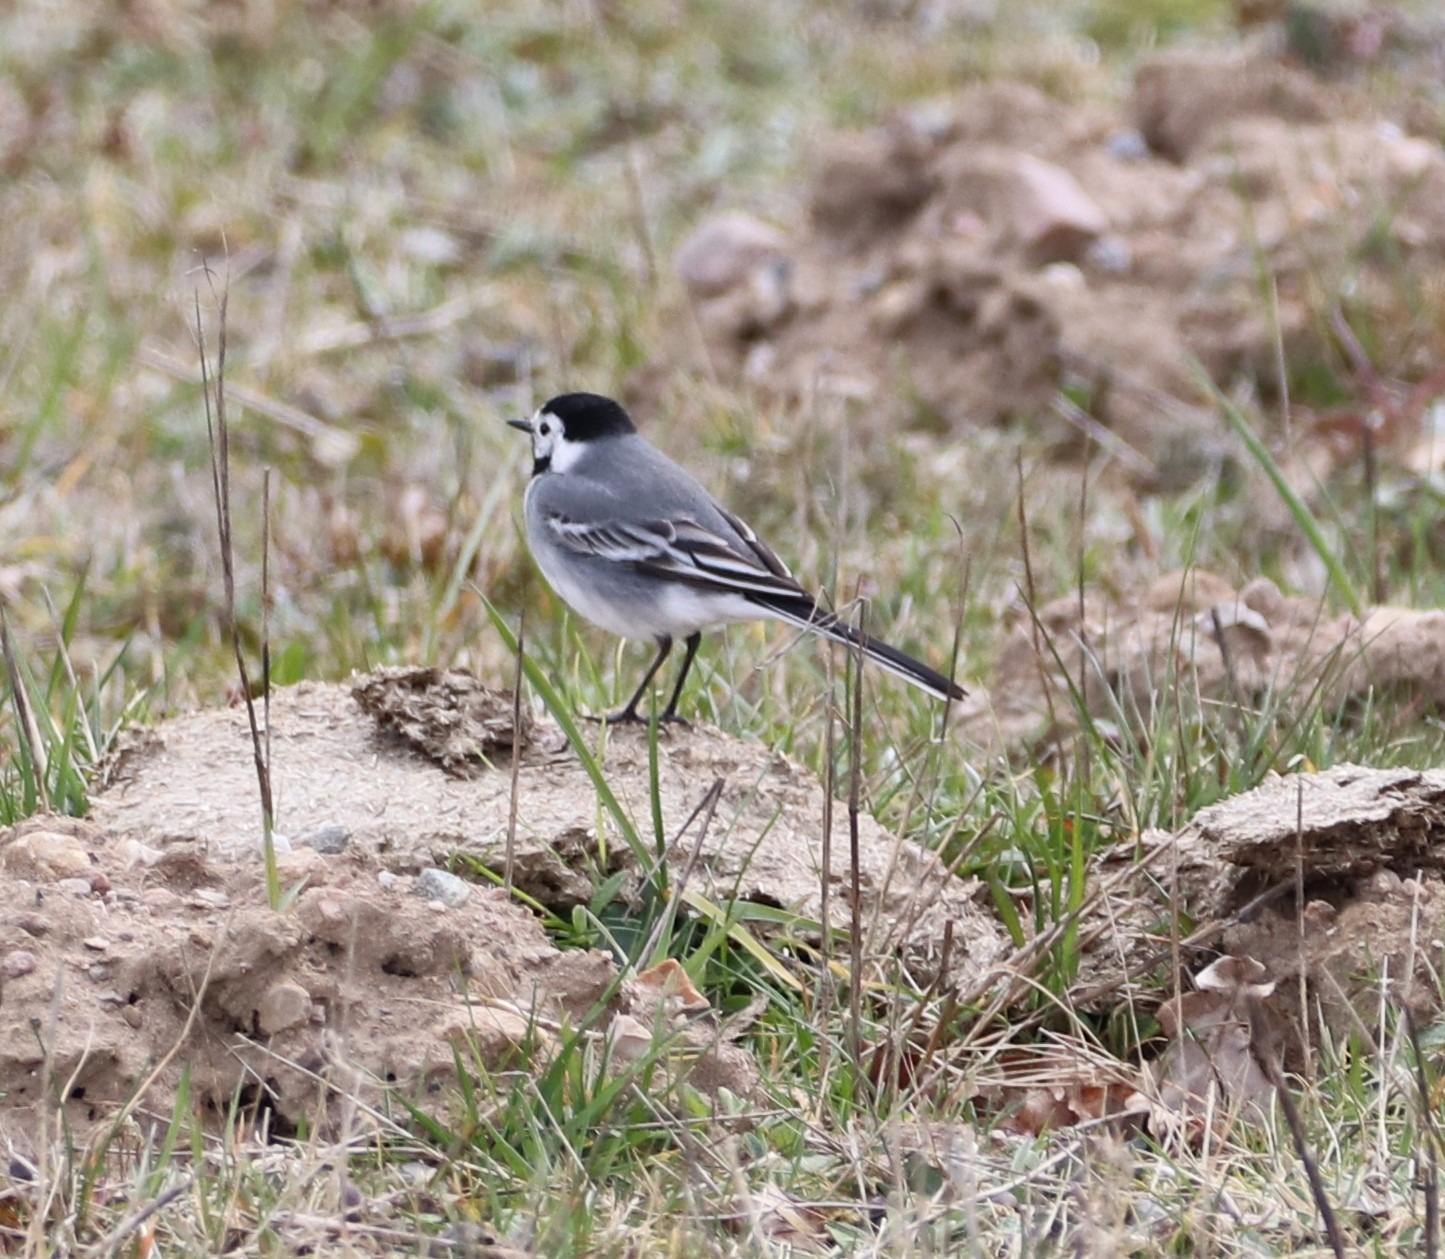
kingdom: Animalia
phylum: Chordata
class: Aves
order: Passeriformes
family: Motacillidae
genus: Motacilla
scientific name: Motacilla alba
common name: Hvid vipstjert
